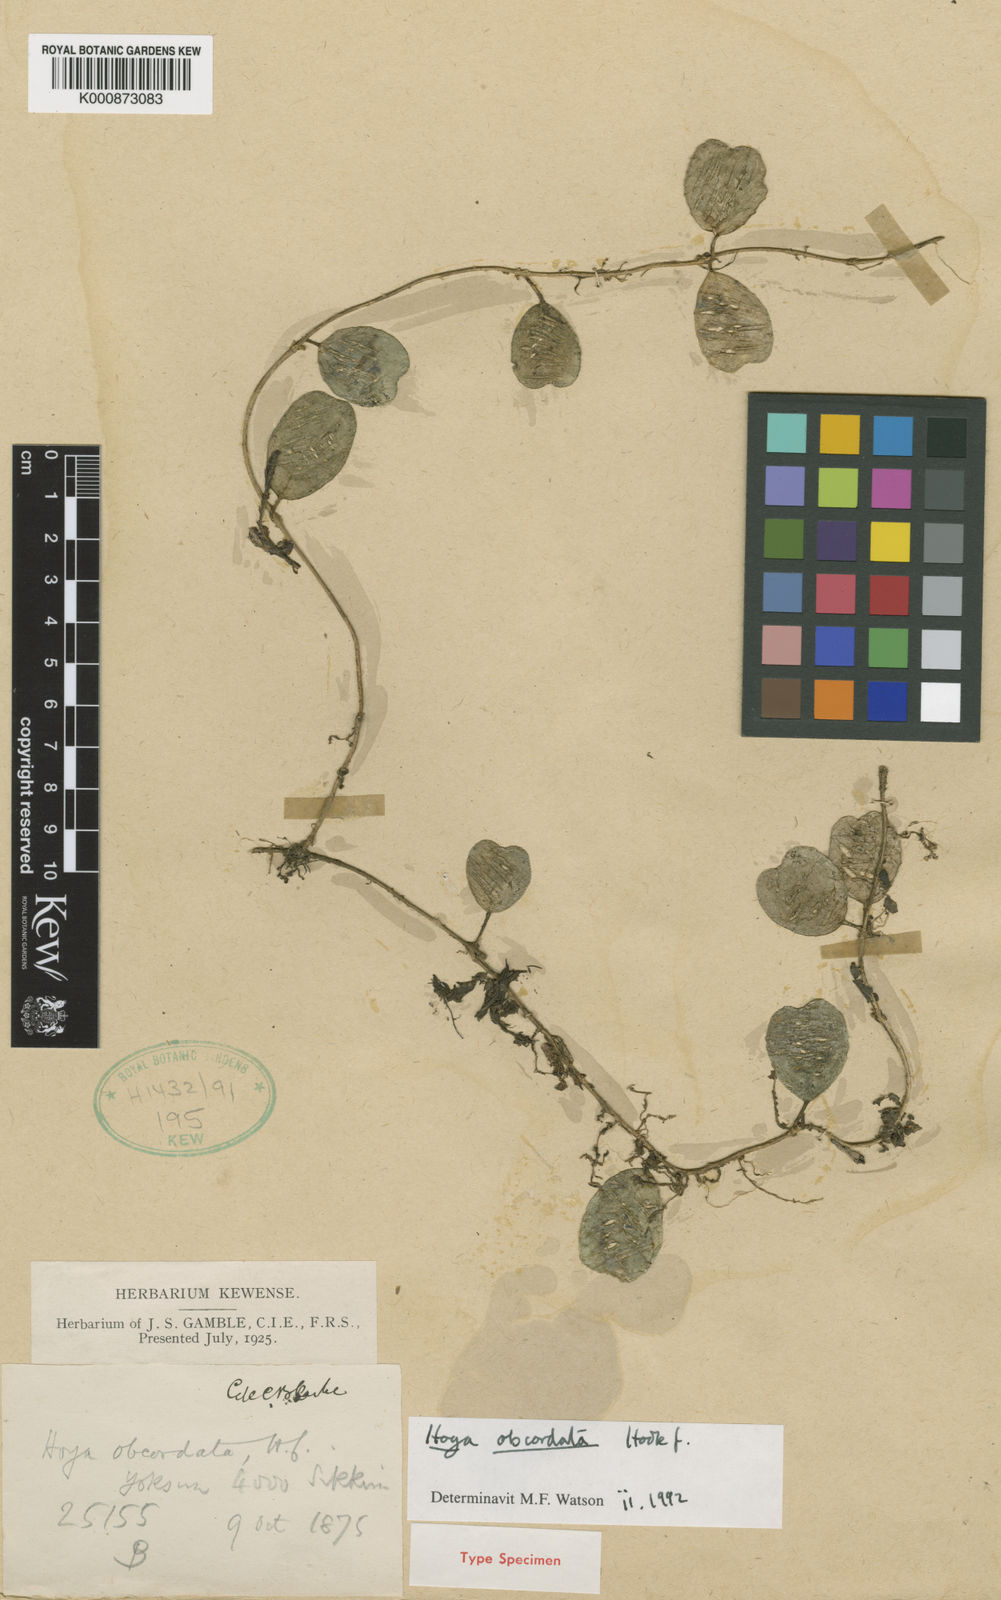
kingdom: Plantae
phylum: Tracheophyta
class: Magnoliopsida
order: Gentianales
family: Apocynaceae
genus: Hoya
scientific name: Hoya obcordata
